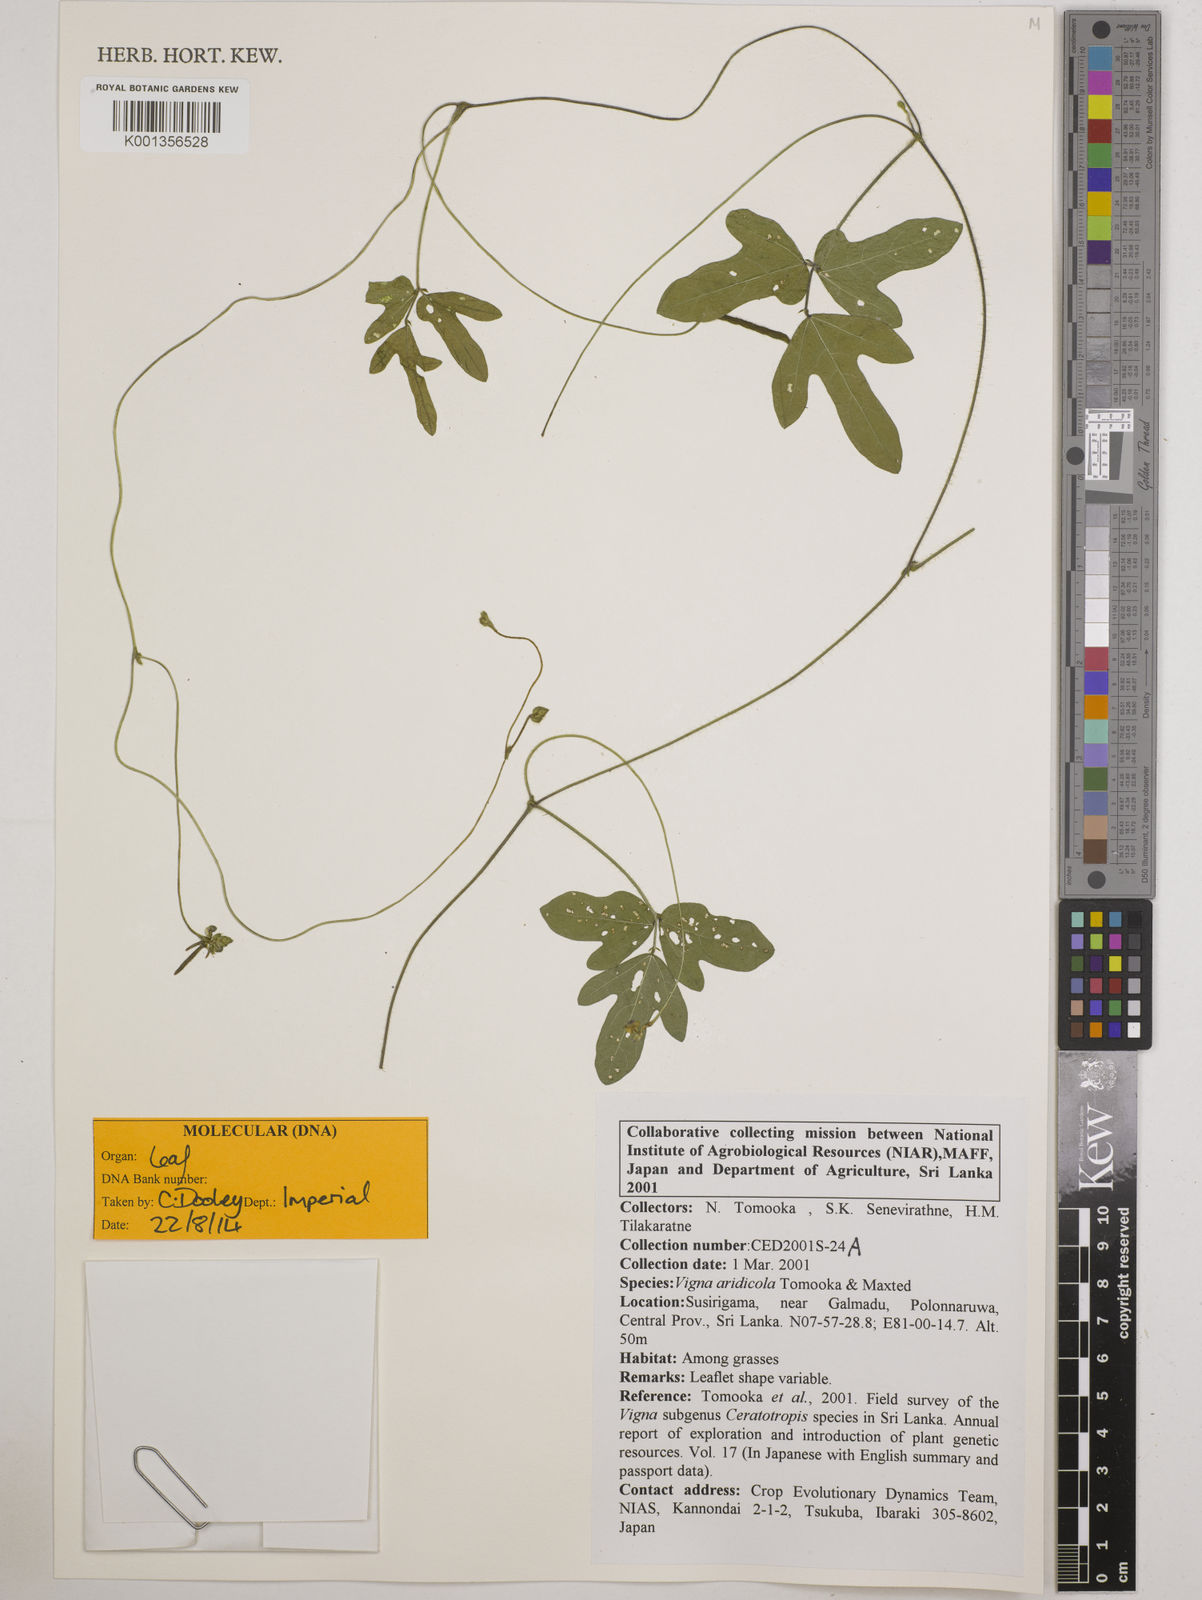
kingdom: Plantae
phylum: Tracheophyta
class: Magnoliopsida
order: Fabales
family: Fabaceae
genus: Vigna
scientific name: Vigna
